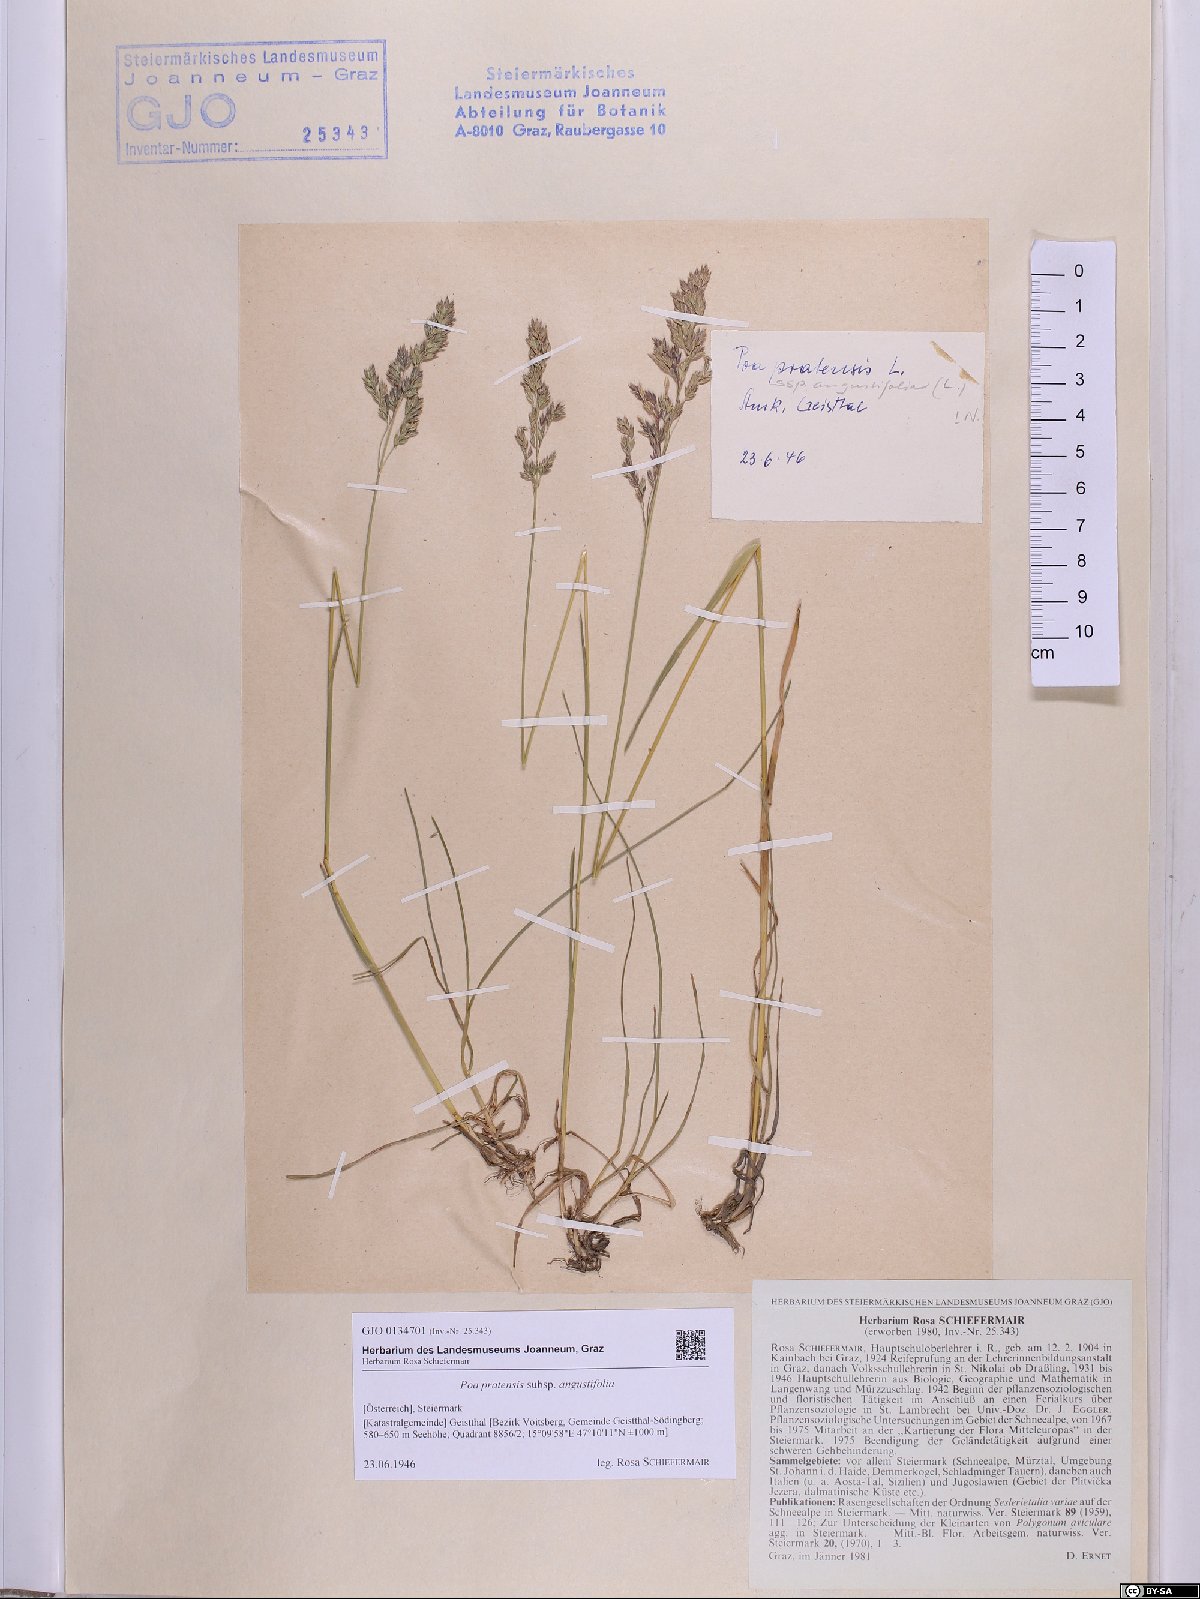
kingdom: Plantae
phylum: Tracheophyta
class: Liliopsida
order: Poales
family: Poaceae
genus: Poa
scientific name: Poa angustifolia
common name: Narrow-leaved meadow-grass
